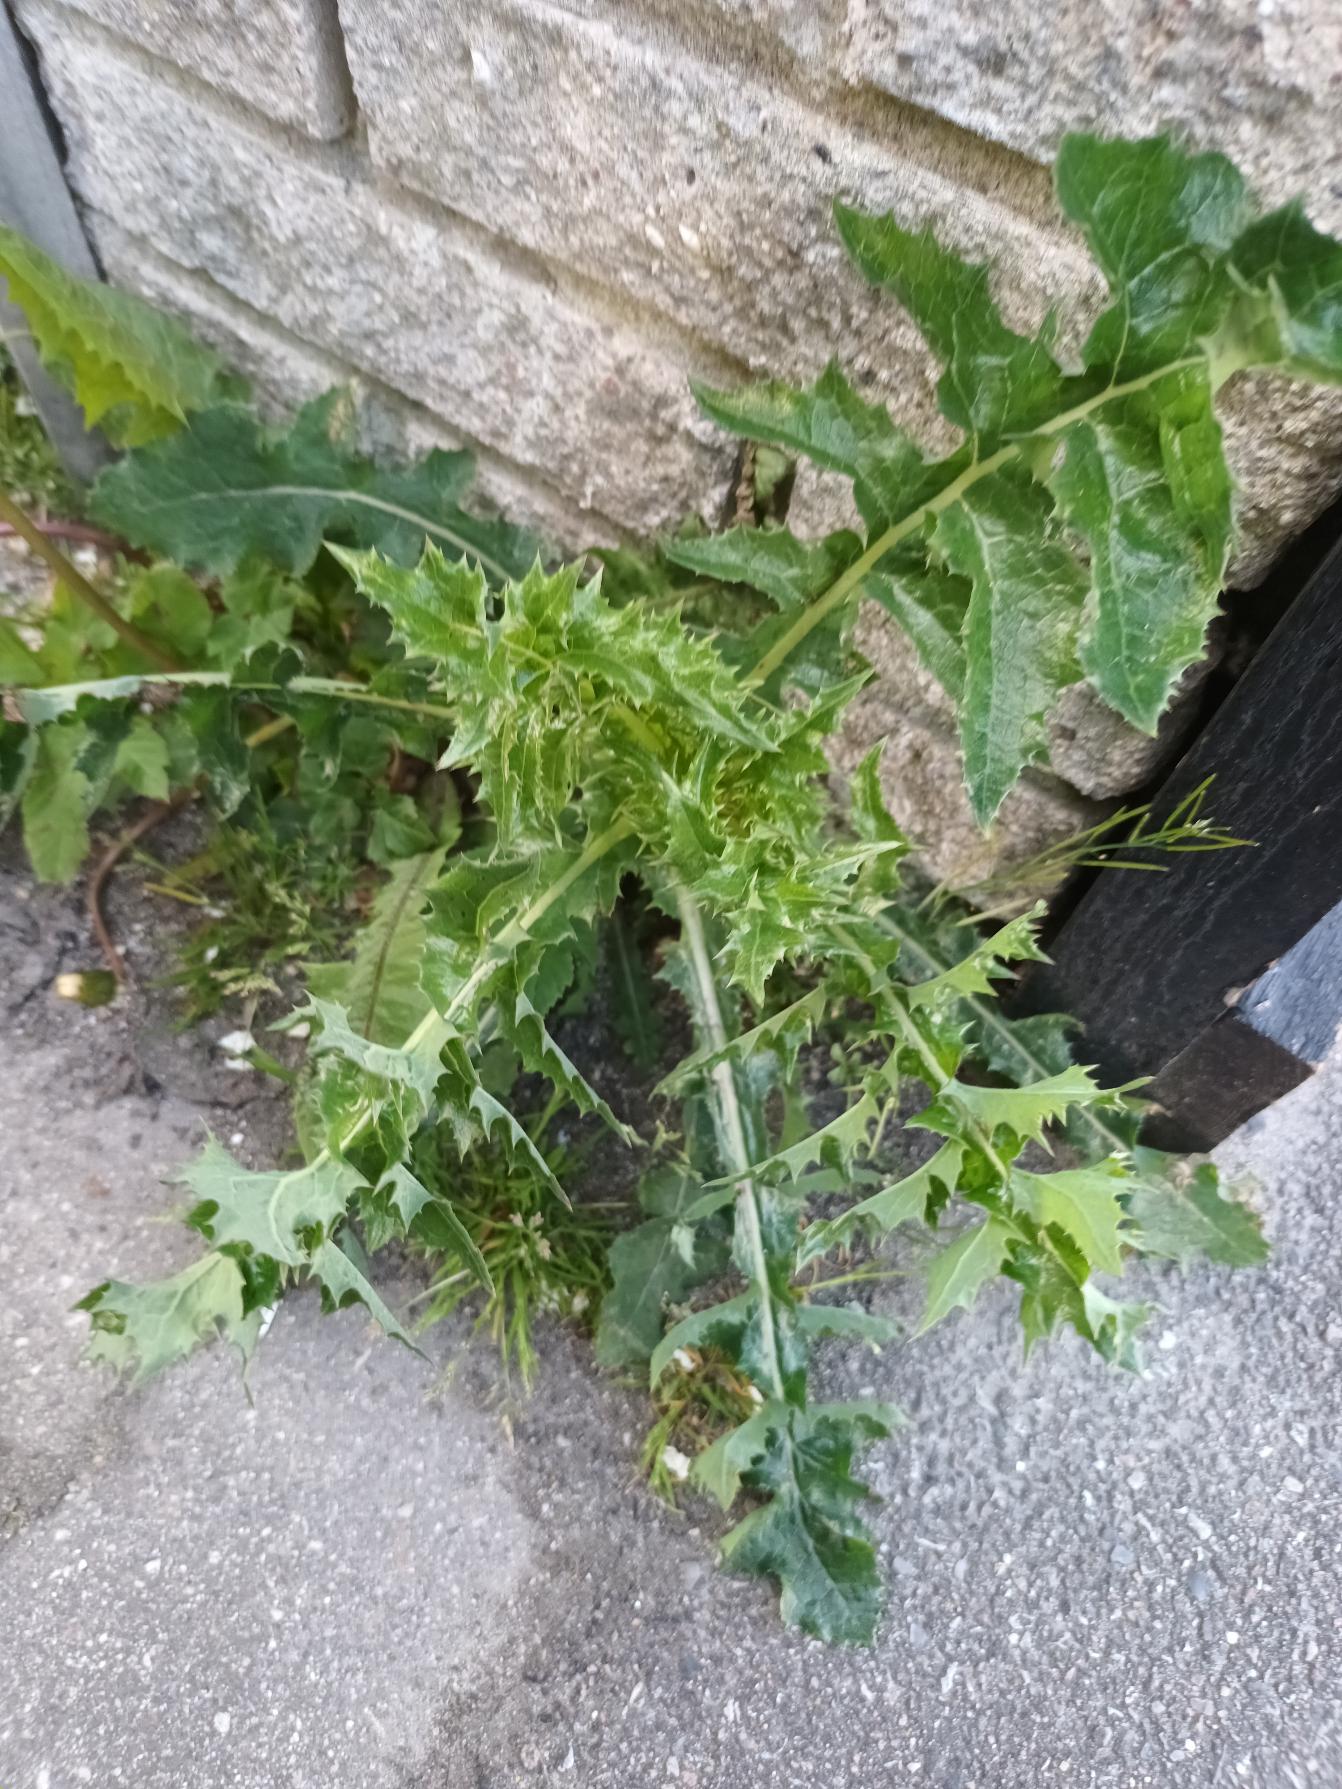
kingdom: Plantae
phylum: Tracheophyta
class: Magnoliopsida
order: Asterales
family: Asteraceae
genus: Sonchus
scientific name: Sonchus asper
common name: Ru svinemælk
